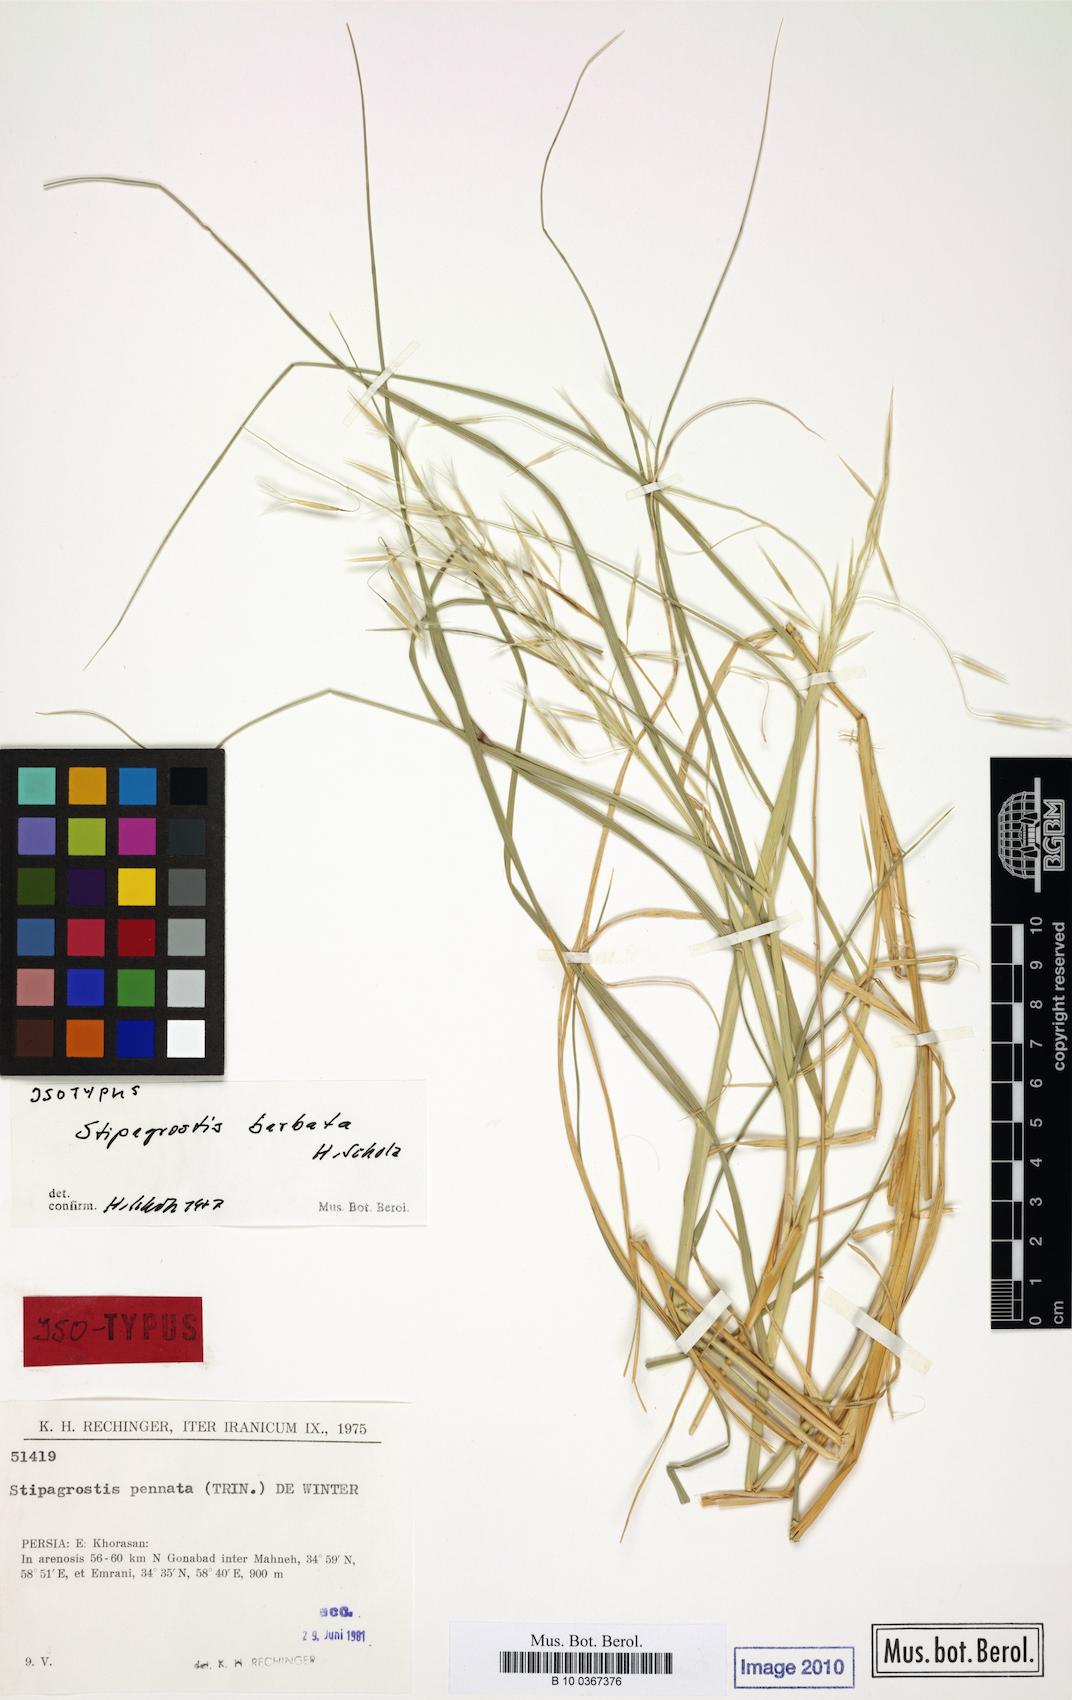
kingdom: Plantae
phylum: Tracheophyta
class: Liliopsida
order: Poales
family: Poaceae
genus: Stipagrostis
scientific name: Stipagrostis pennata
